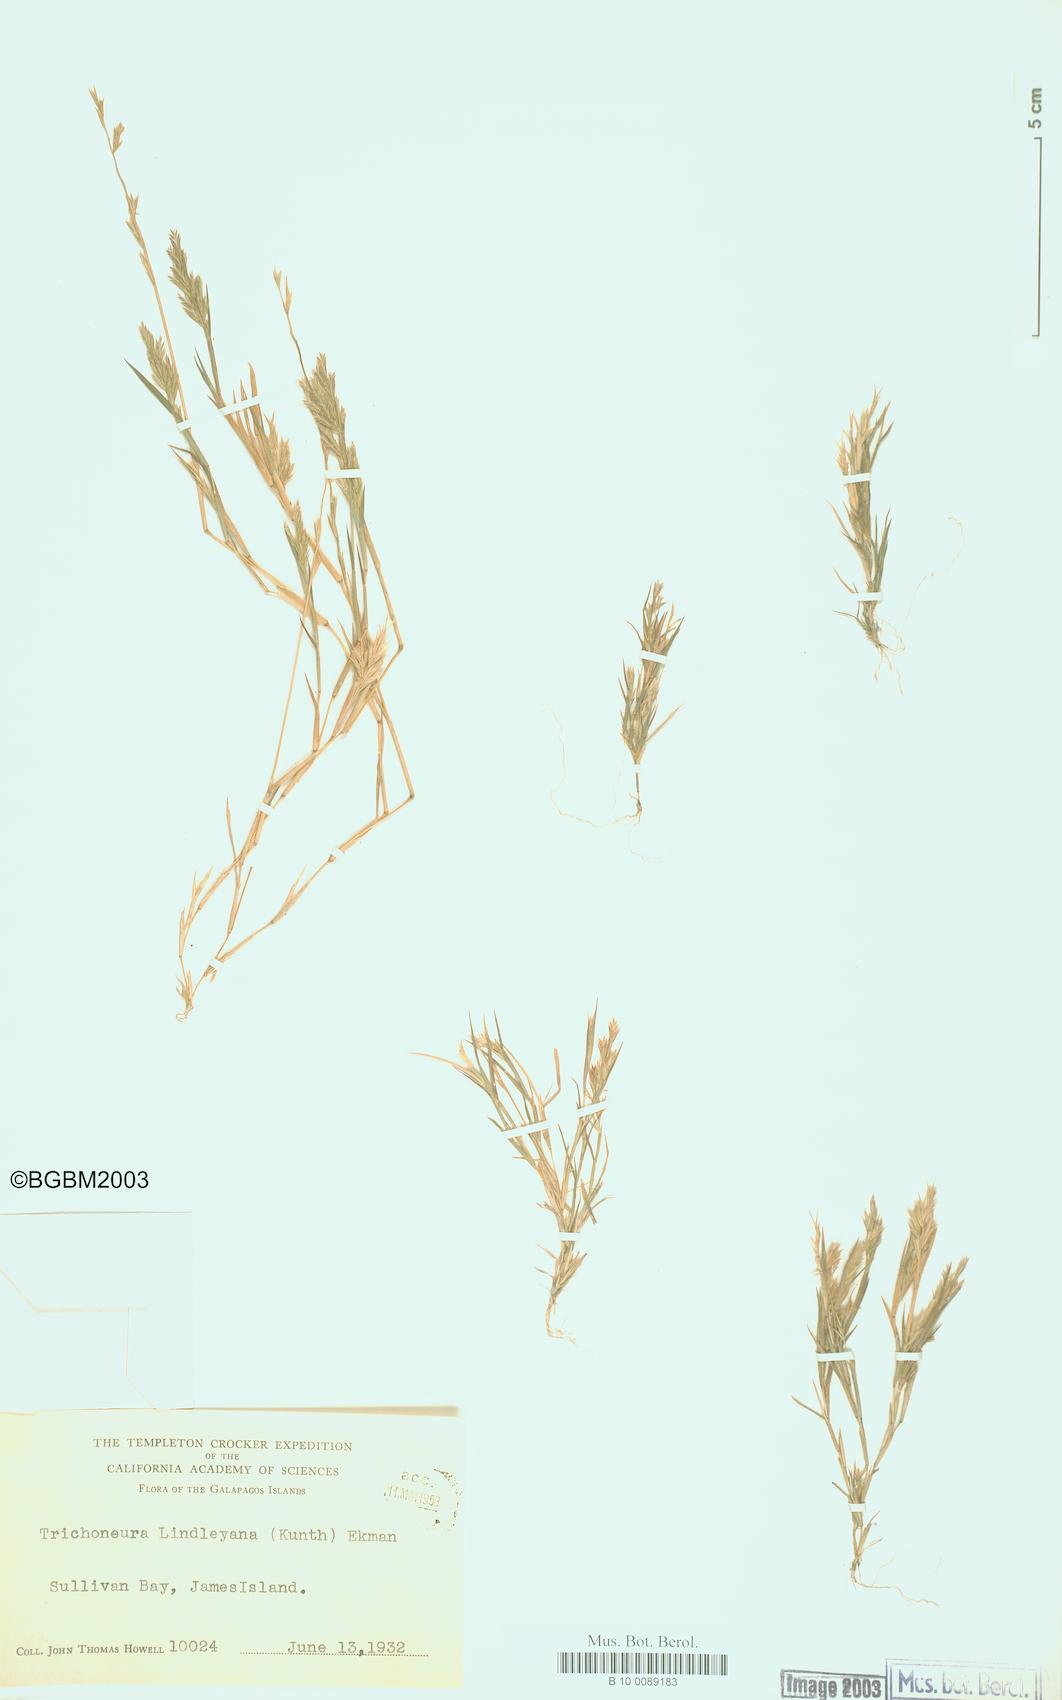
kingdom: Plantae
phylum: Tracheophyta
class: Liliopsida
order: Poales
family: Poaceae
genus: Trichoneura
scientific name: Trichoneura lindleyana
